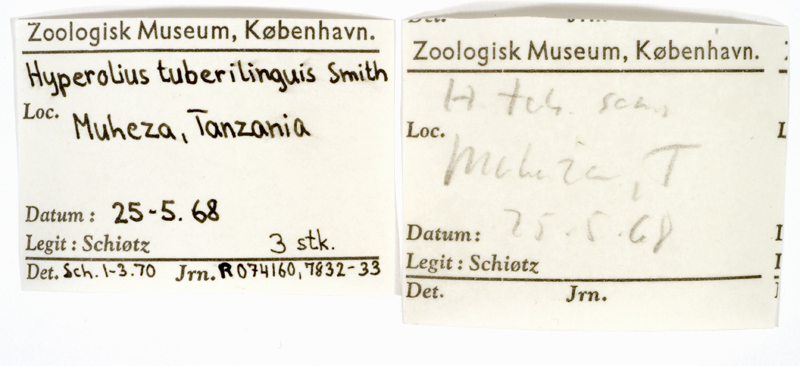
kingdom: Animalia
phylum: Chordata
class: Amphibia
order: Anura
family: Hyperoliidae
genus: Hyperolius
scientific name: Hyperolius tuberilinguis
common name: Tinker reed frog
